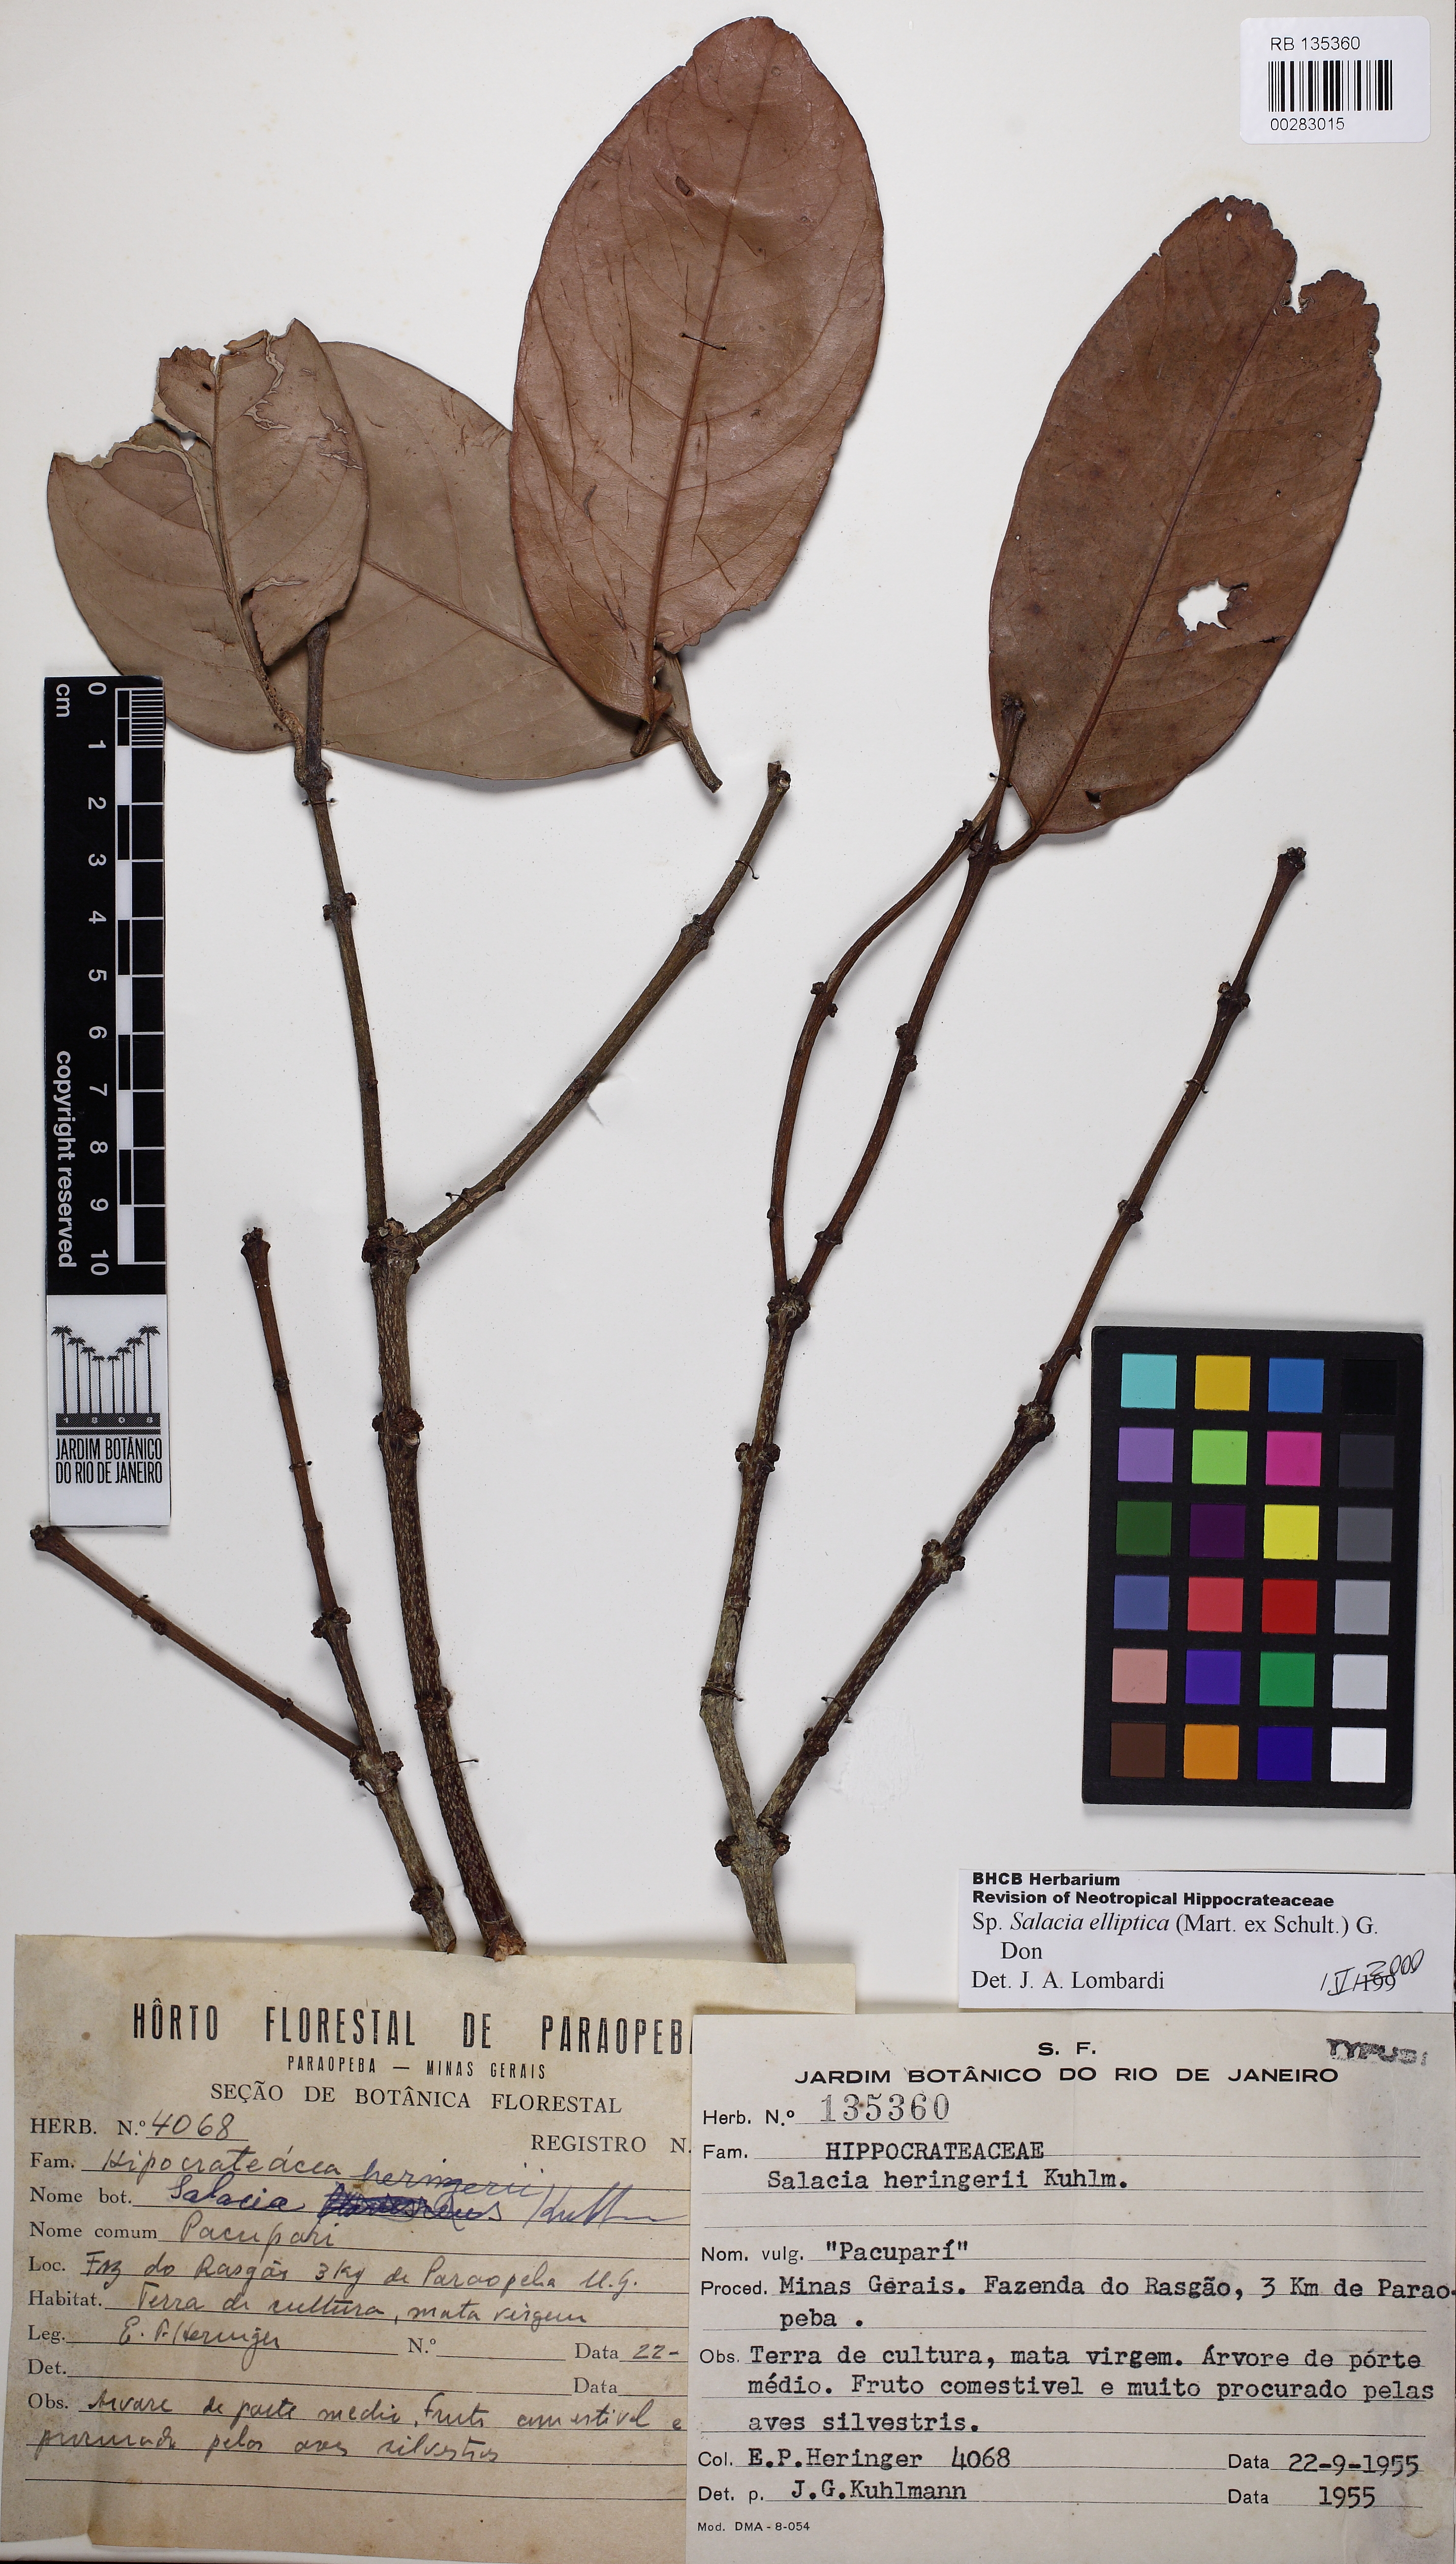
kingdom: Plantae
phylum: Tracheophyta
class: Magnoliopsida
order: Celastrales
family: Celastraceae
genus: Salacia
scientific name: Salacia elliptica
